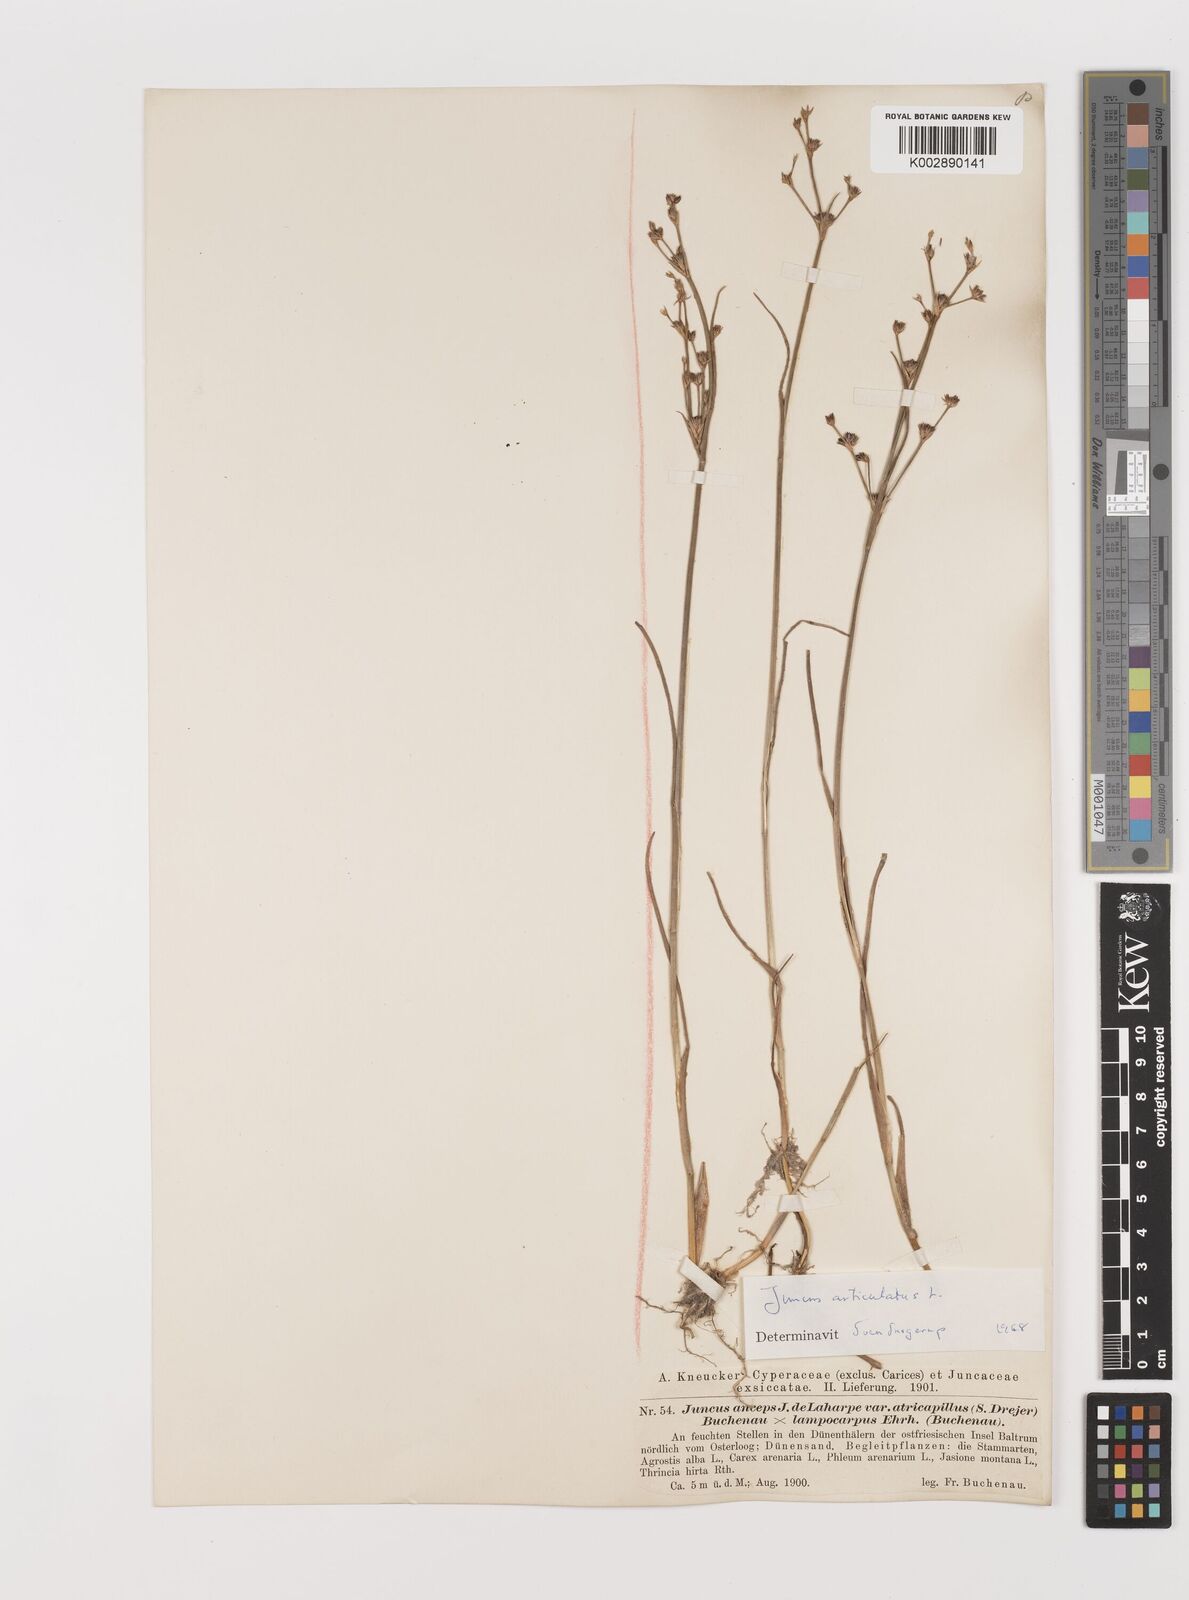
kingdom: Plantae
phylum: Tracheophyta
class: Liliopsida
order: Poales
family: Juncaceae
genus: Juncus
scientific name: Juncus articulatus
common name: Jointed rush
